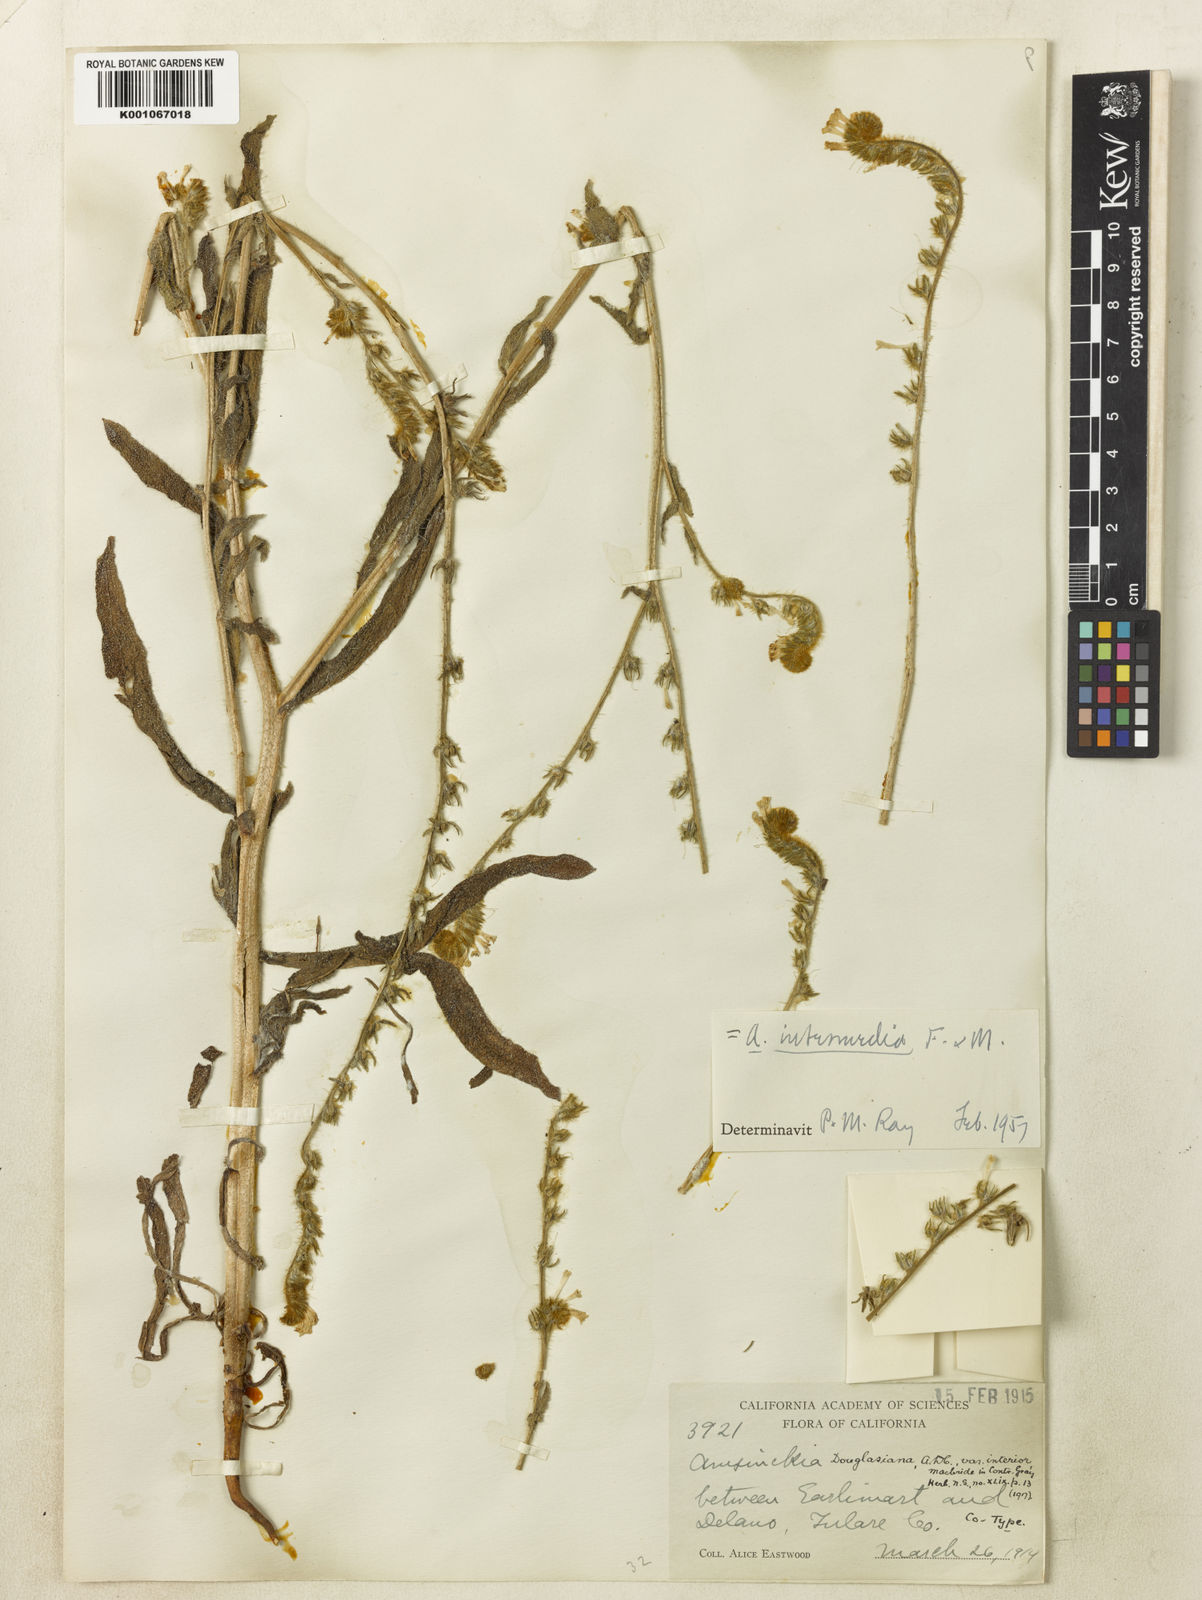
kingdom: Plantae
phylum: Tracheophyta
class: Magnoliopsida
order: Boraginales
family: Boraginaceae
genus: Amsinckia
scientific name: Amsinckia menziesii
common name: Menzies' fiddleneck
